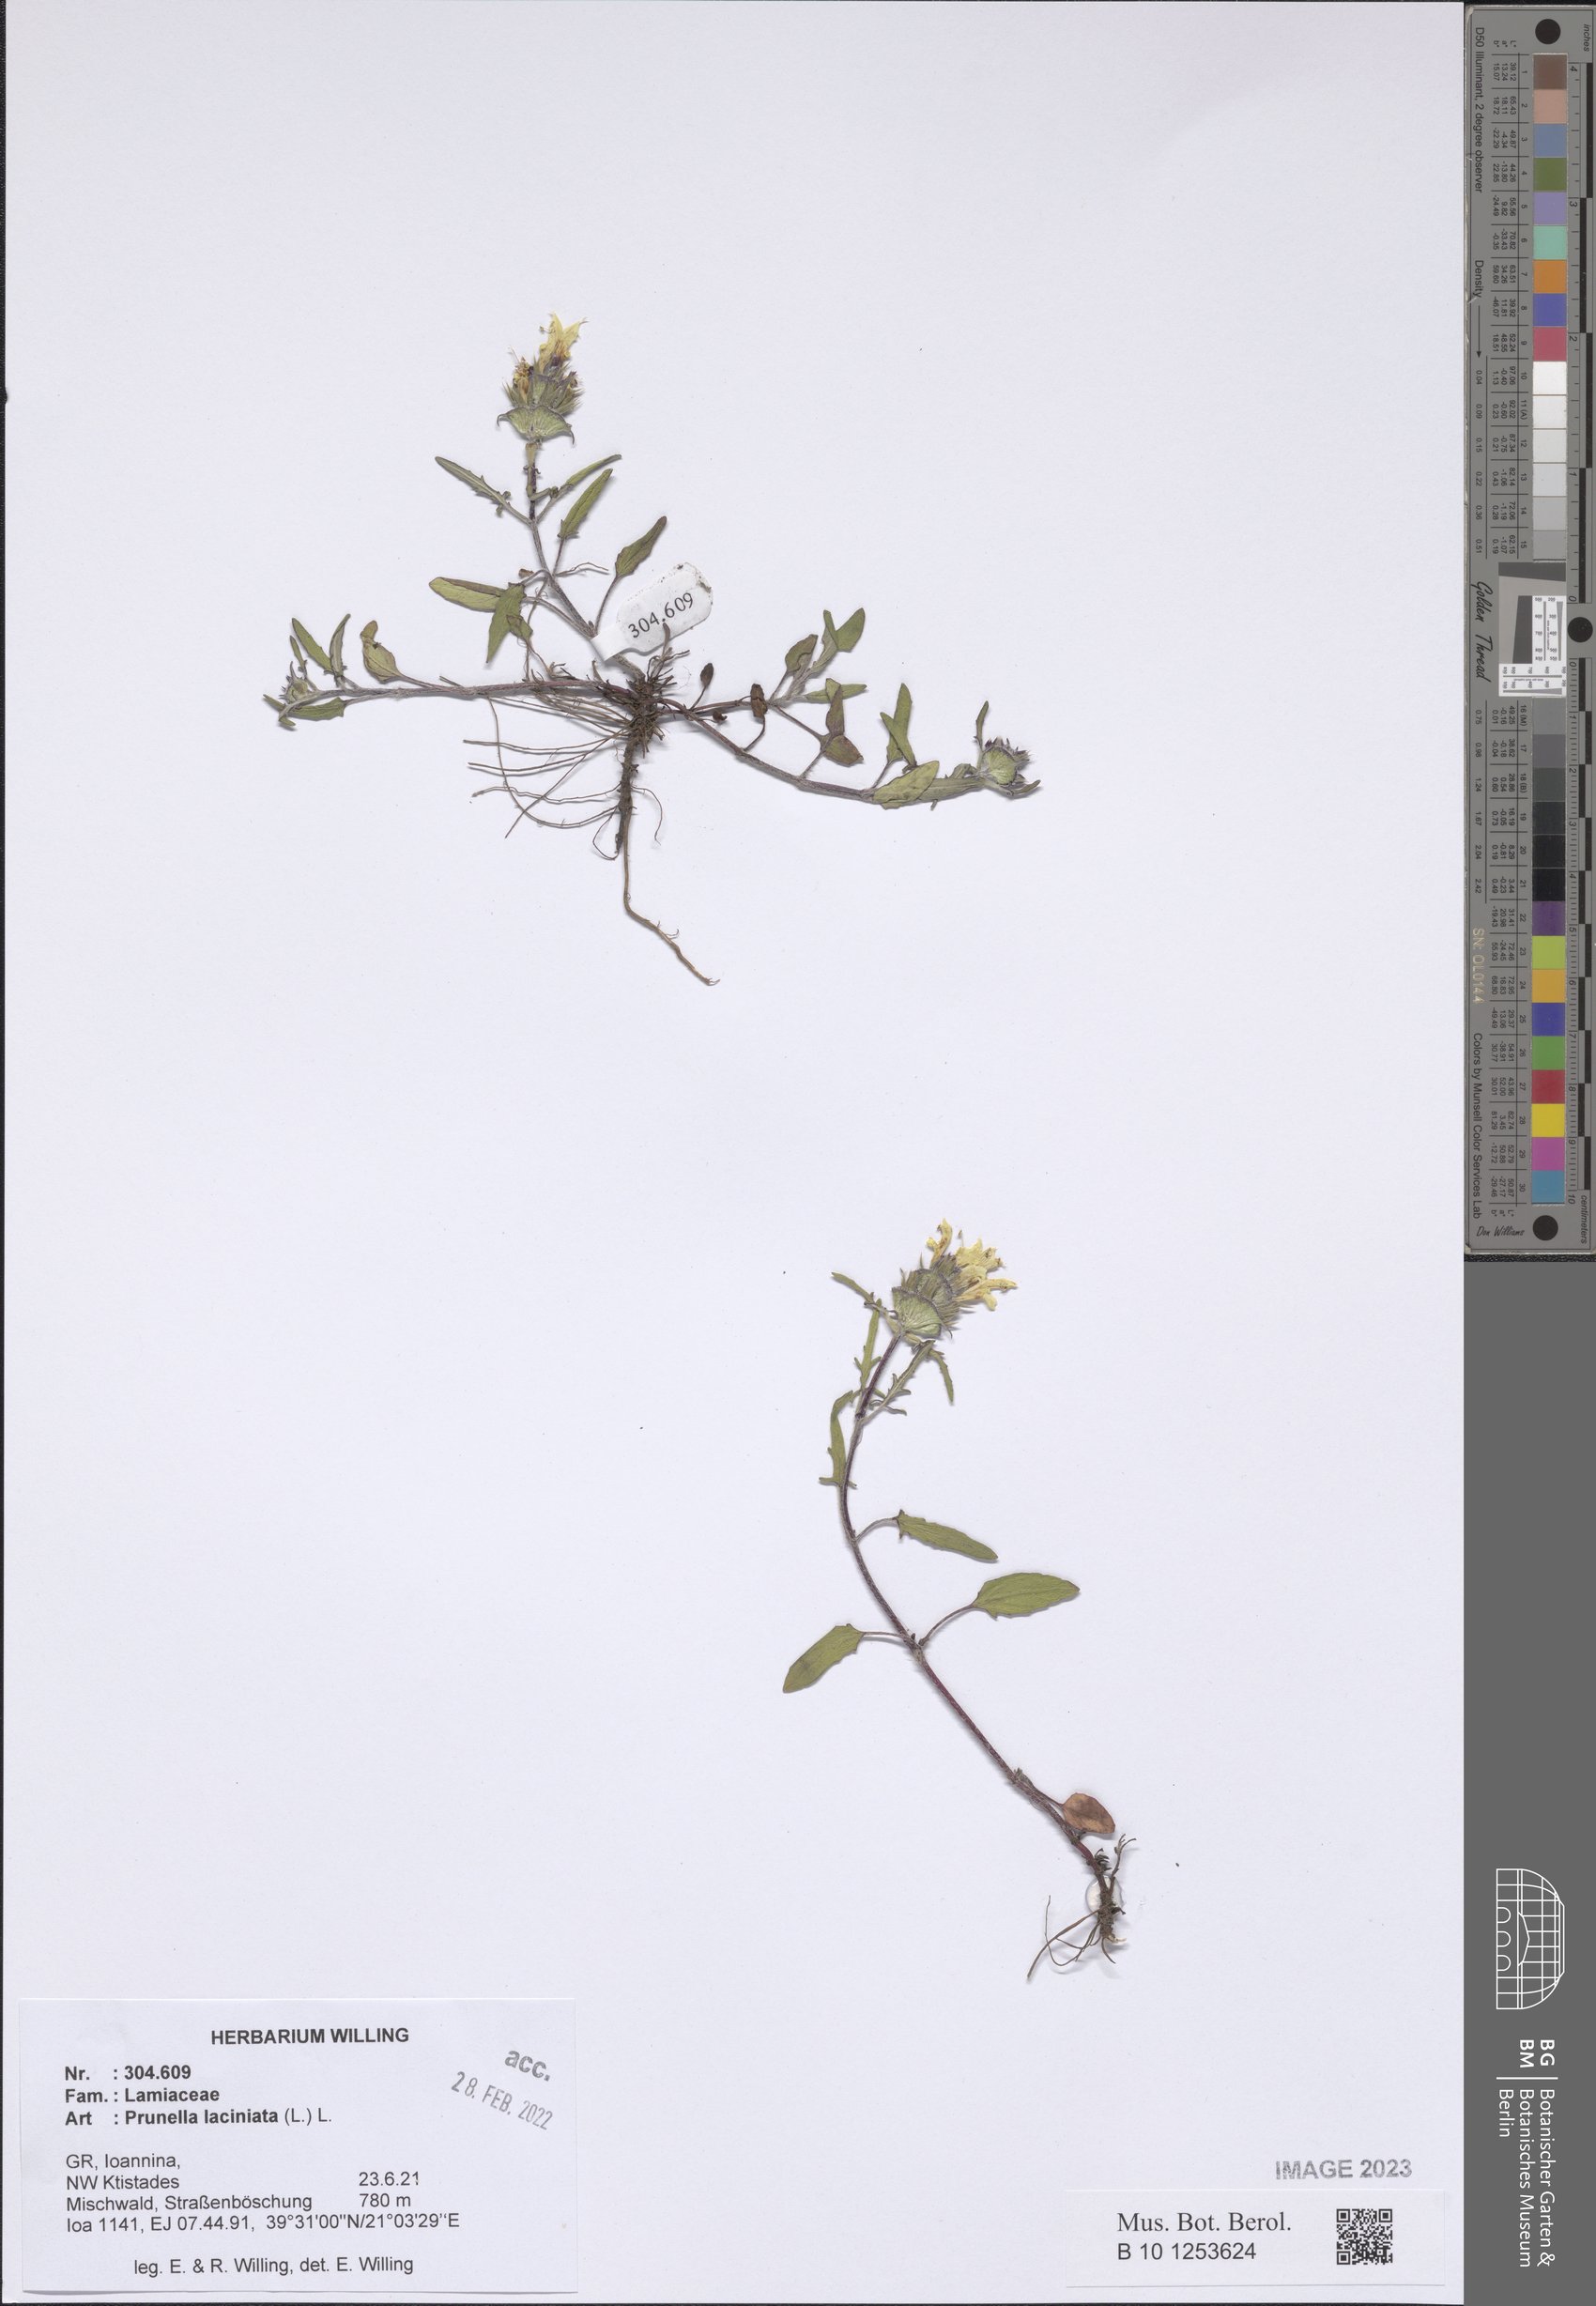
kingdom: Plantae
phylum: Tracheophyta
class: Magnoliopsida
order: Lamiales
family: Lamiaceae
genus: Prunella
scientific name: Prunella laciniata
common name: Cut-leaved selfheal
